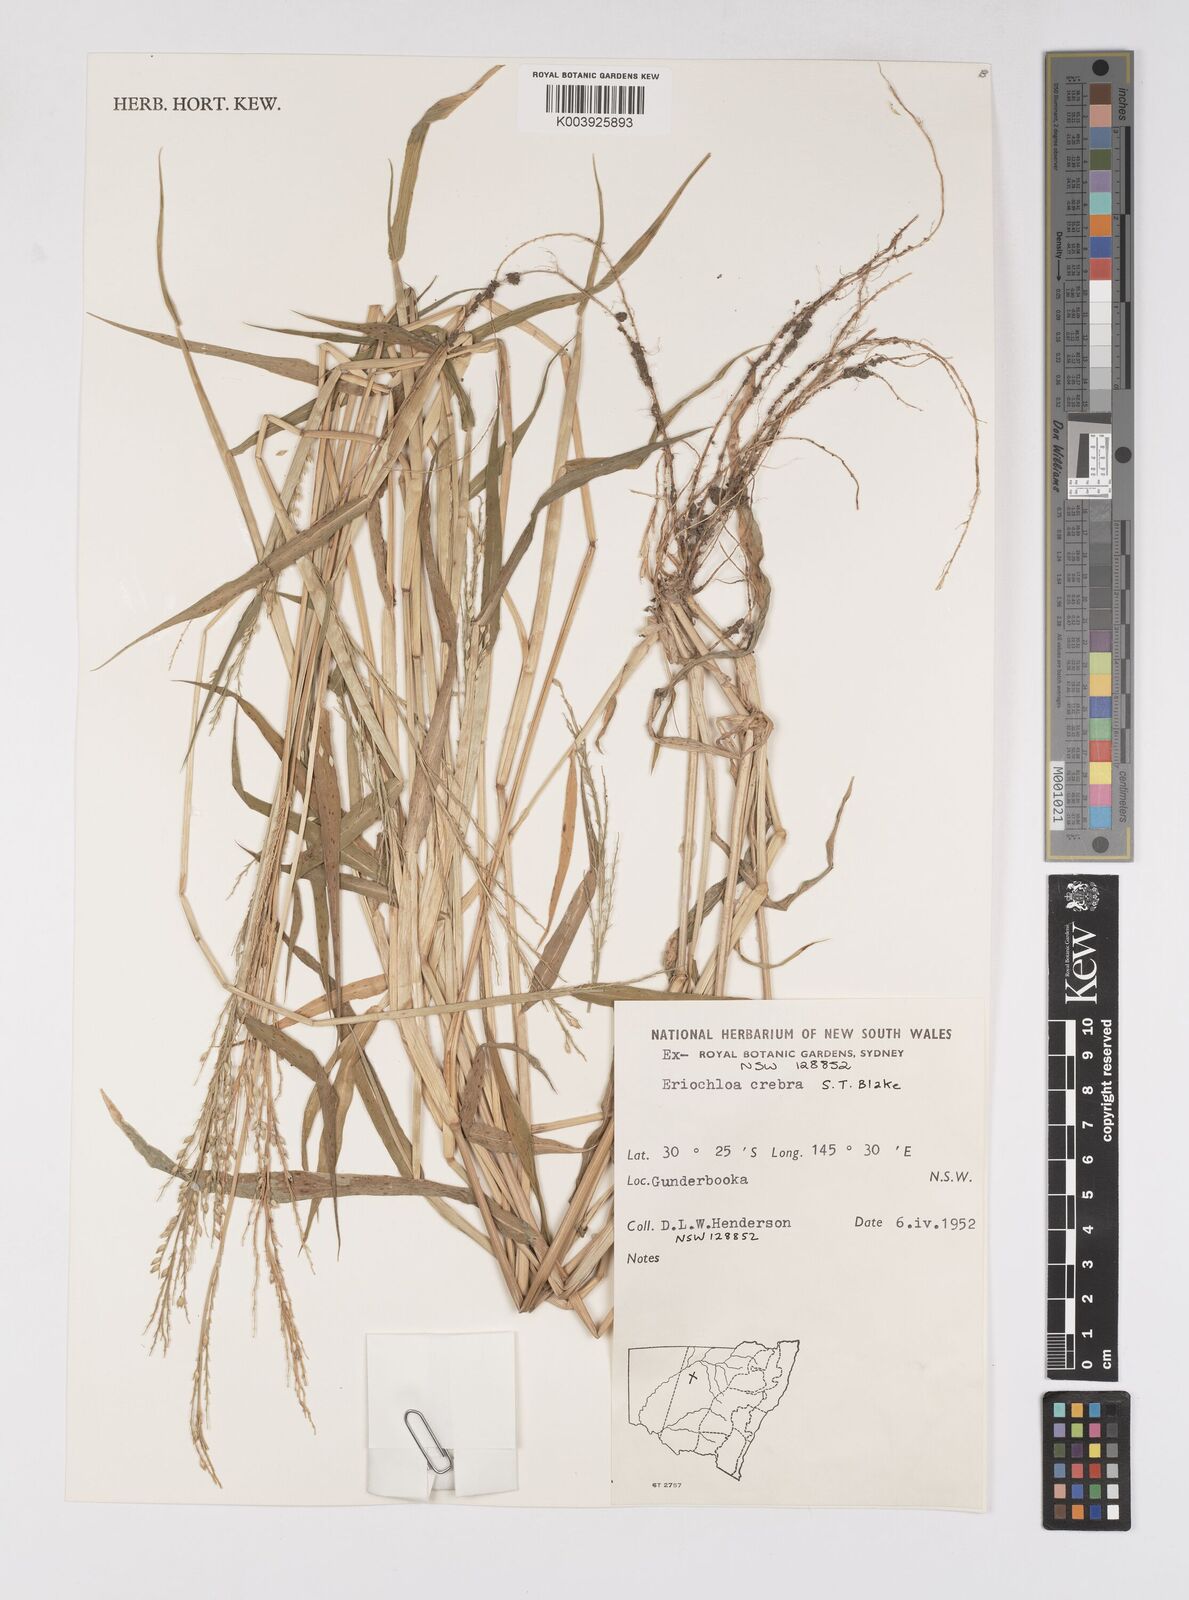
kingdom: Plantae
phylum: Tracheophyta
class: Liliopsida
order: Poales
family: Poaceae
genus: Eriochloa
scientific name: Eriochloa crebra
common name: Cup grass
